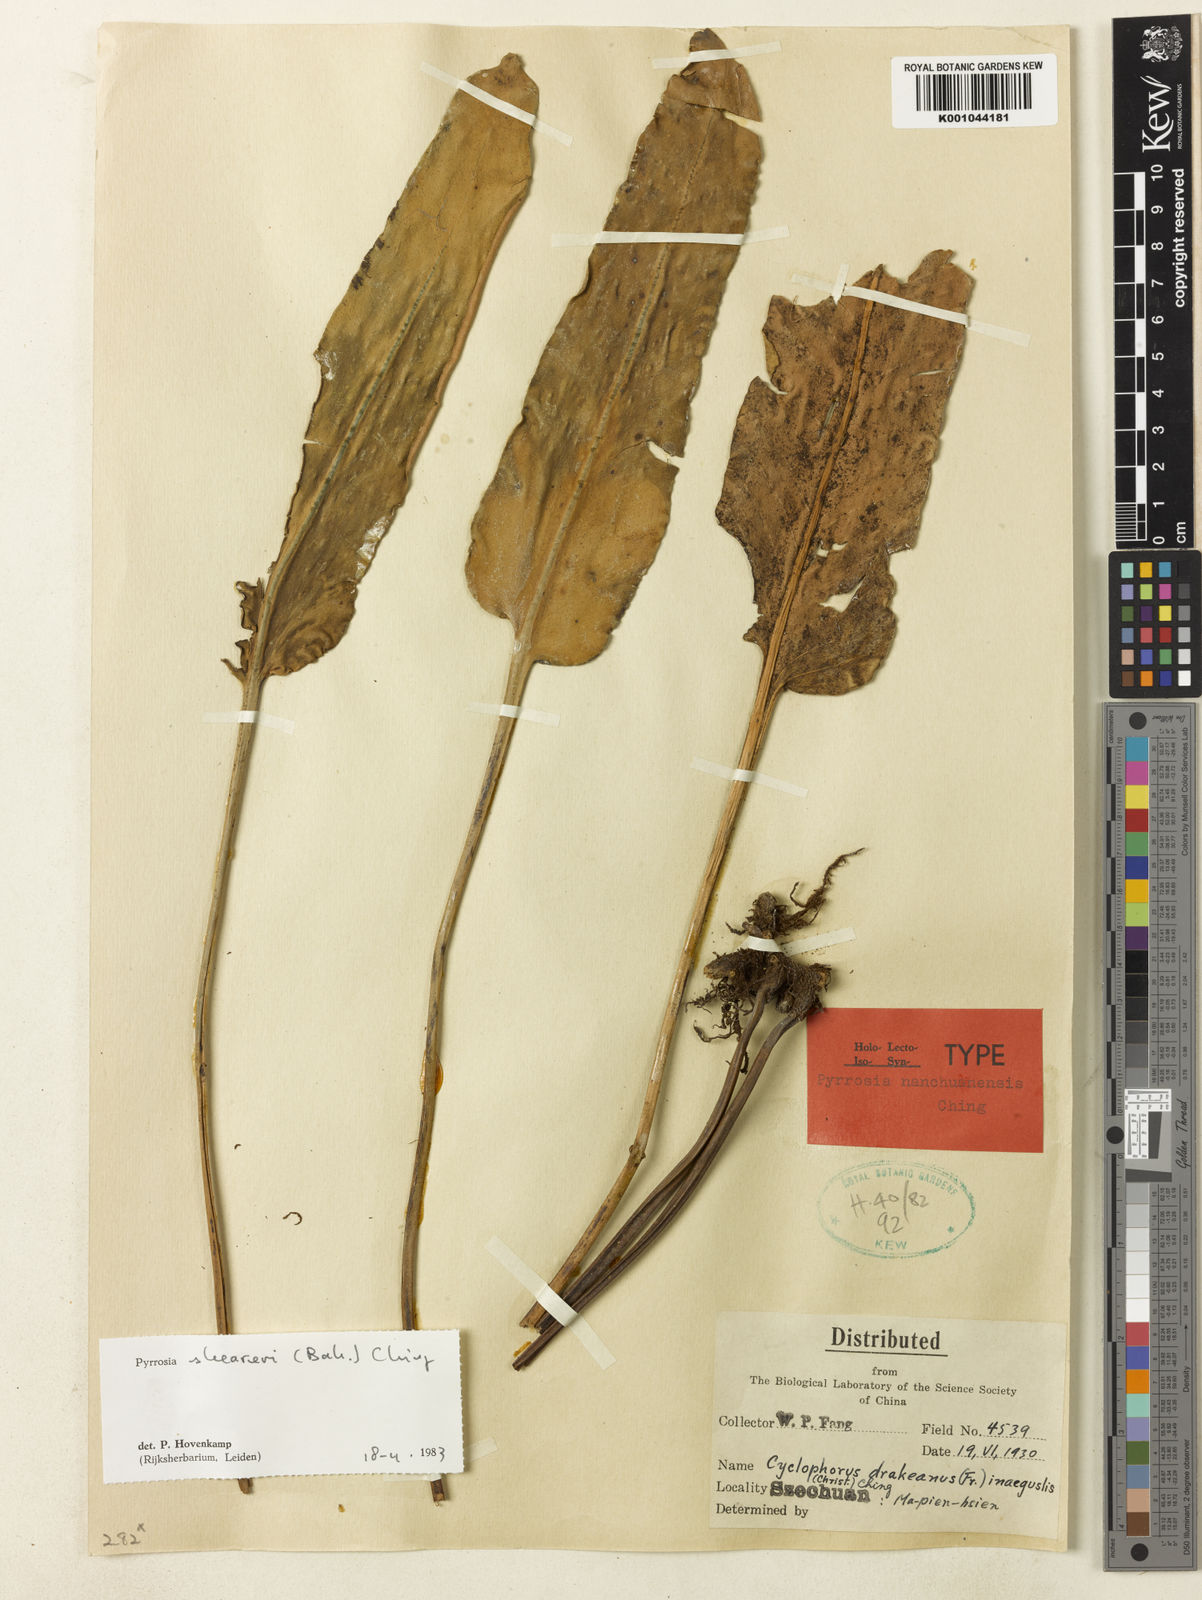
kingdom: Plantae
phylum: Tracheophyta
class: Polypodiopsida
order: Polypodiales
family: Polypodiaceae
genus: Pyrrosia
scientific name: Pyrrosia sheareri
